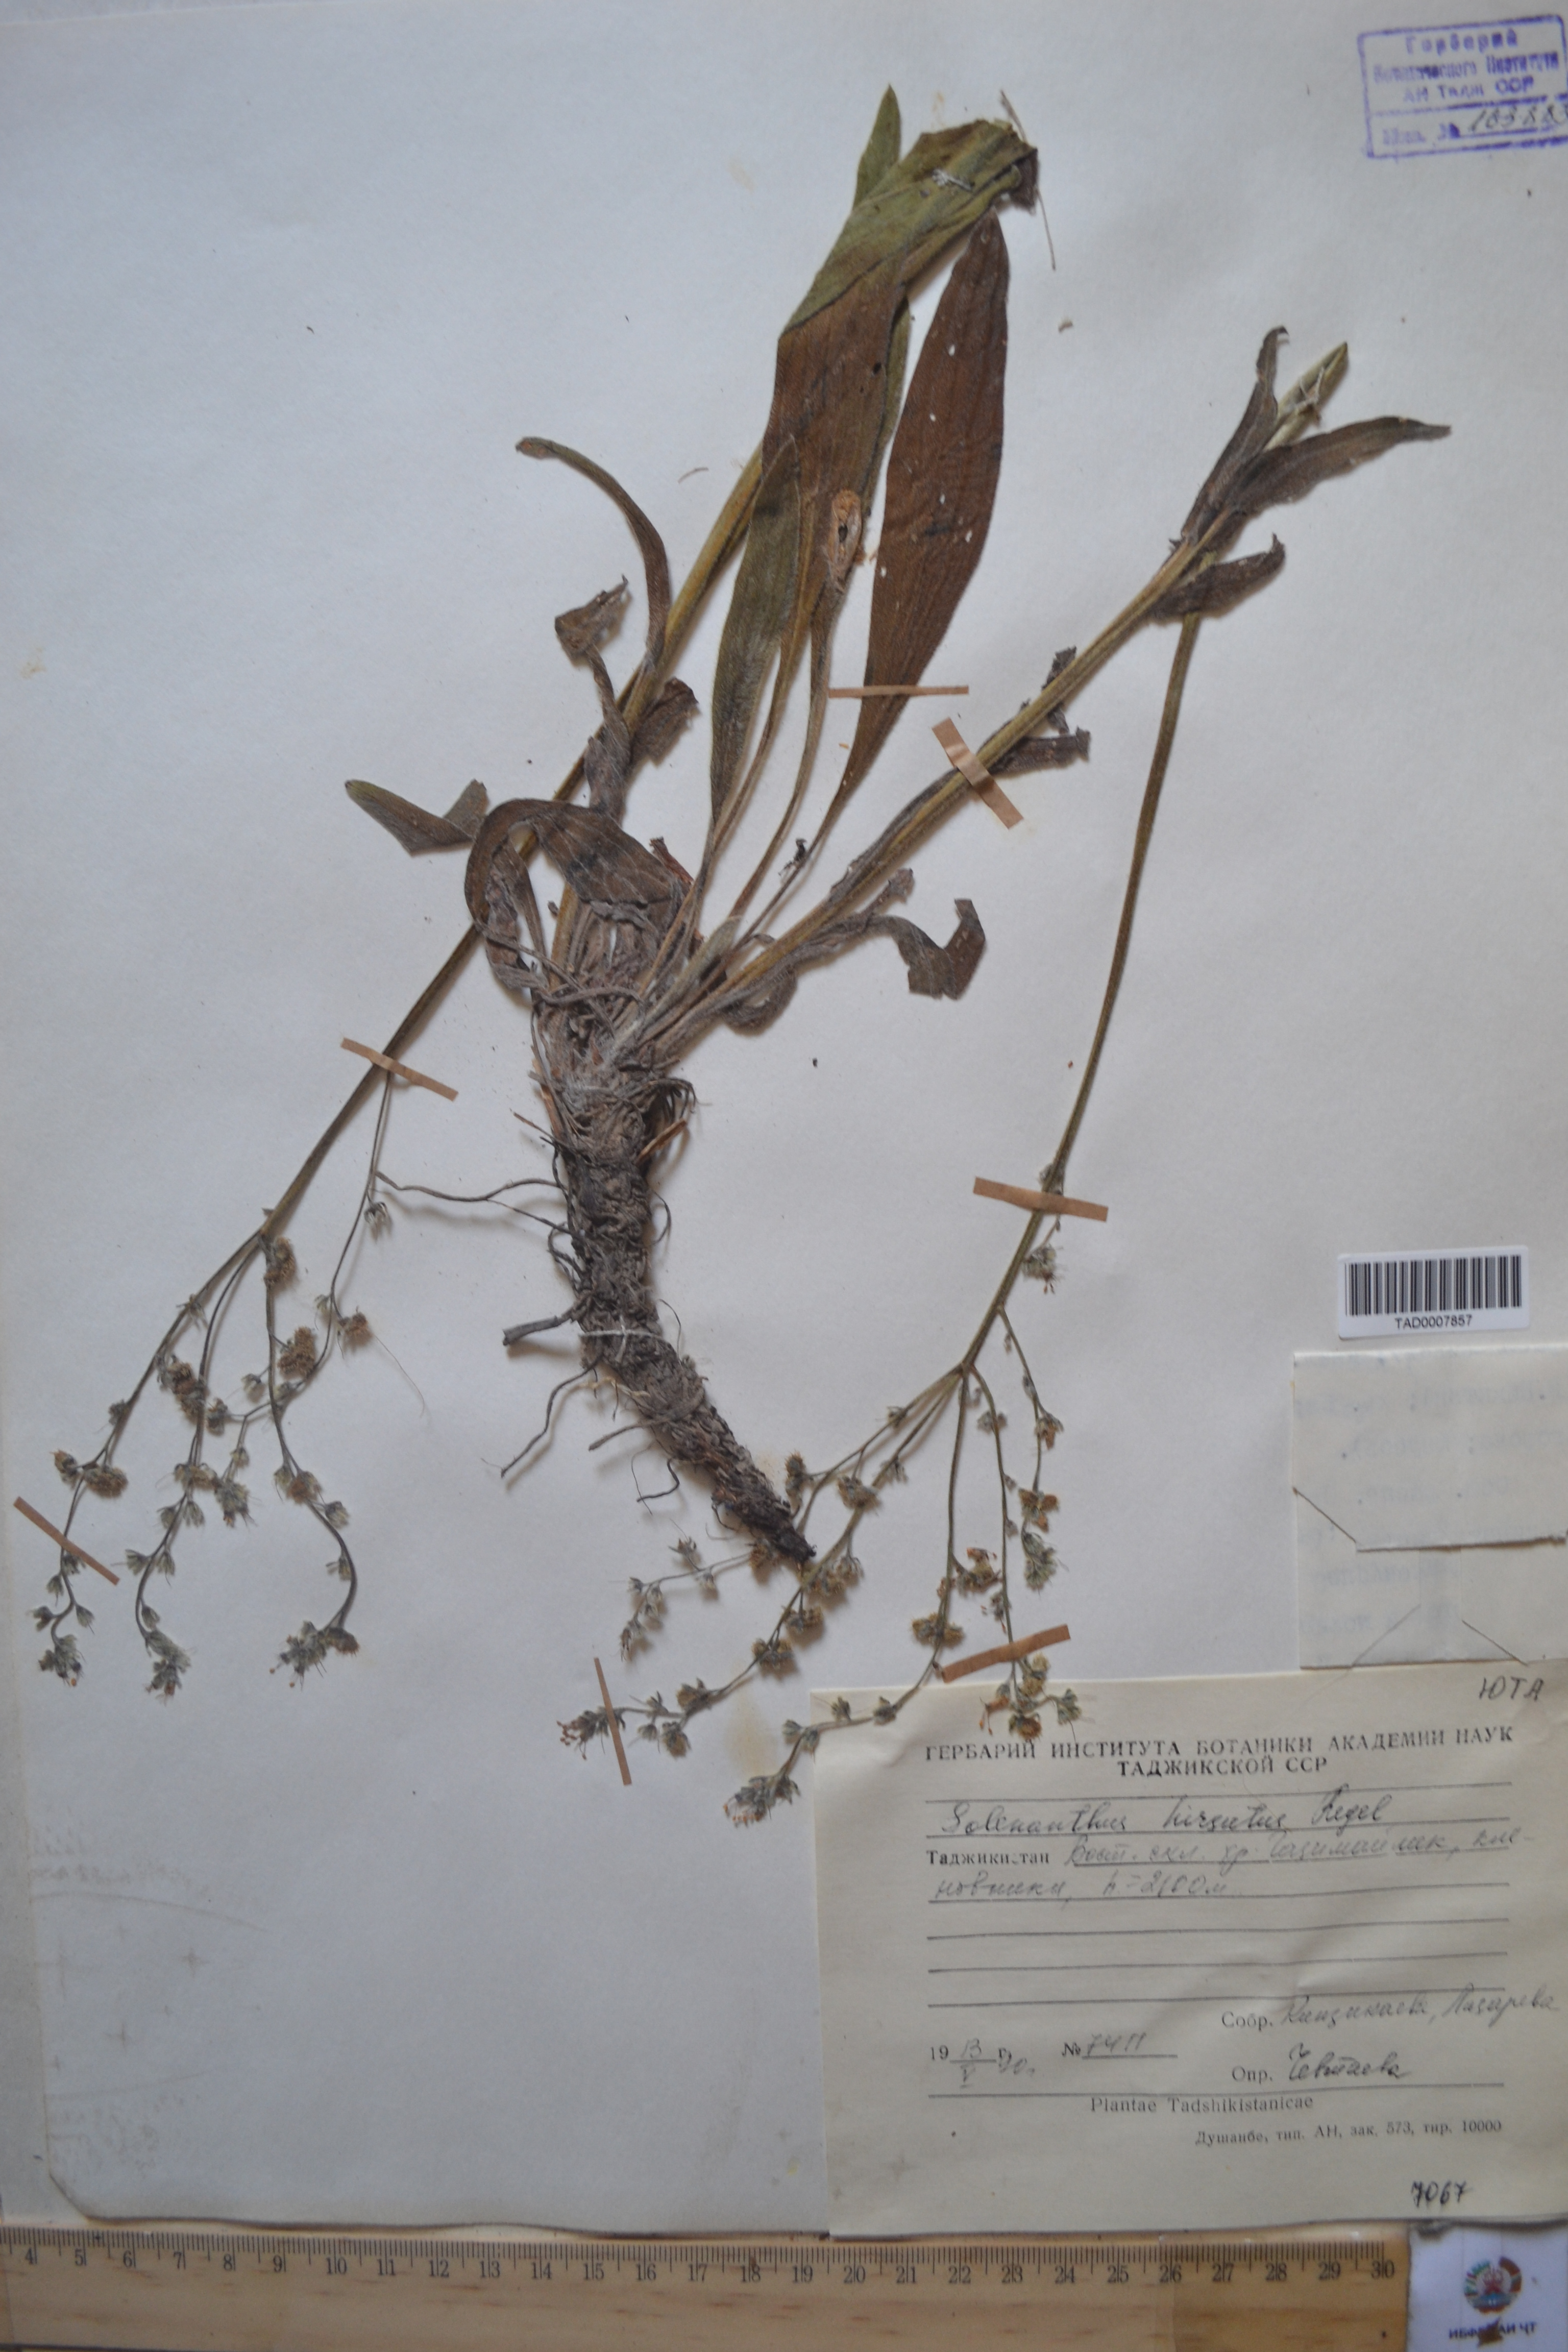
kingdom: Plantae
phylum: Tracheophyta
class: Magnoliopsida
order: Boraginales
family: Boraginaceae
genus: Solenanthus
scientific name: Solenanthus hirsutus
